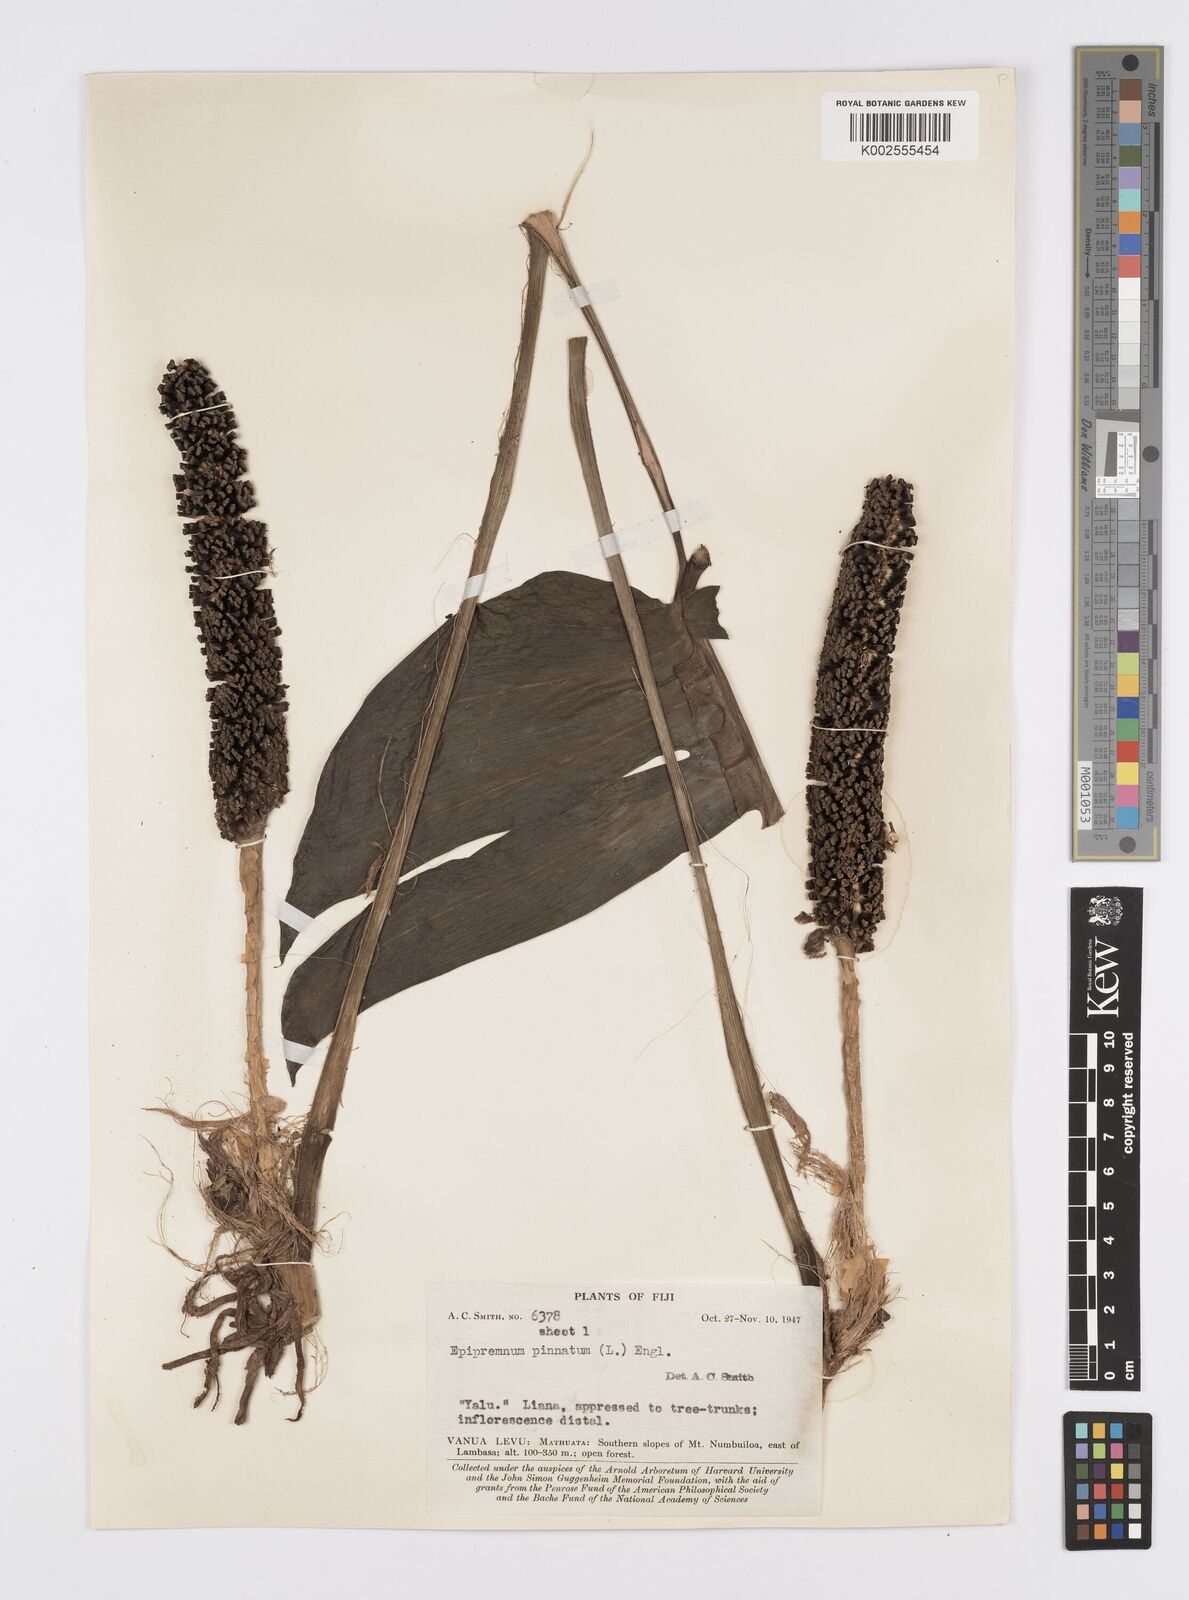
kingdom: Plantae
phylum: Tracheophyta
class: Liliopsida
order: Alismatales
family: Araceae
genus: Epipremnum
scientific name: Epipremnum pinnatum
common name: Centipede tongavine
